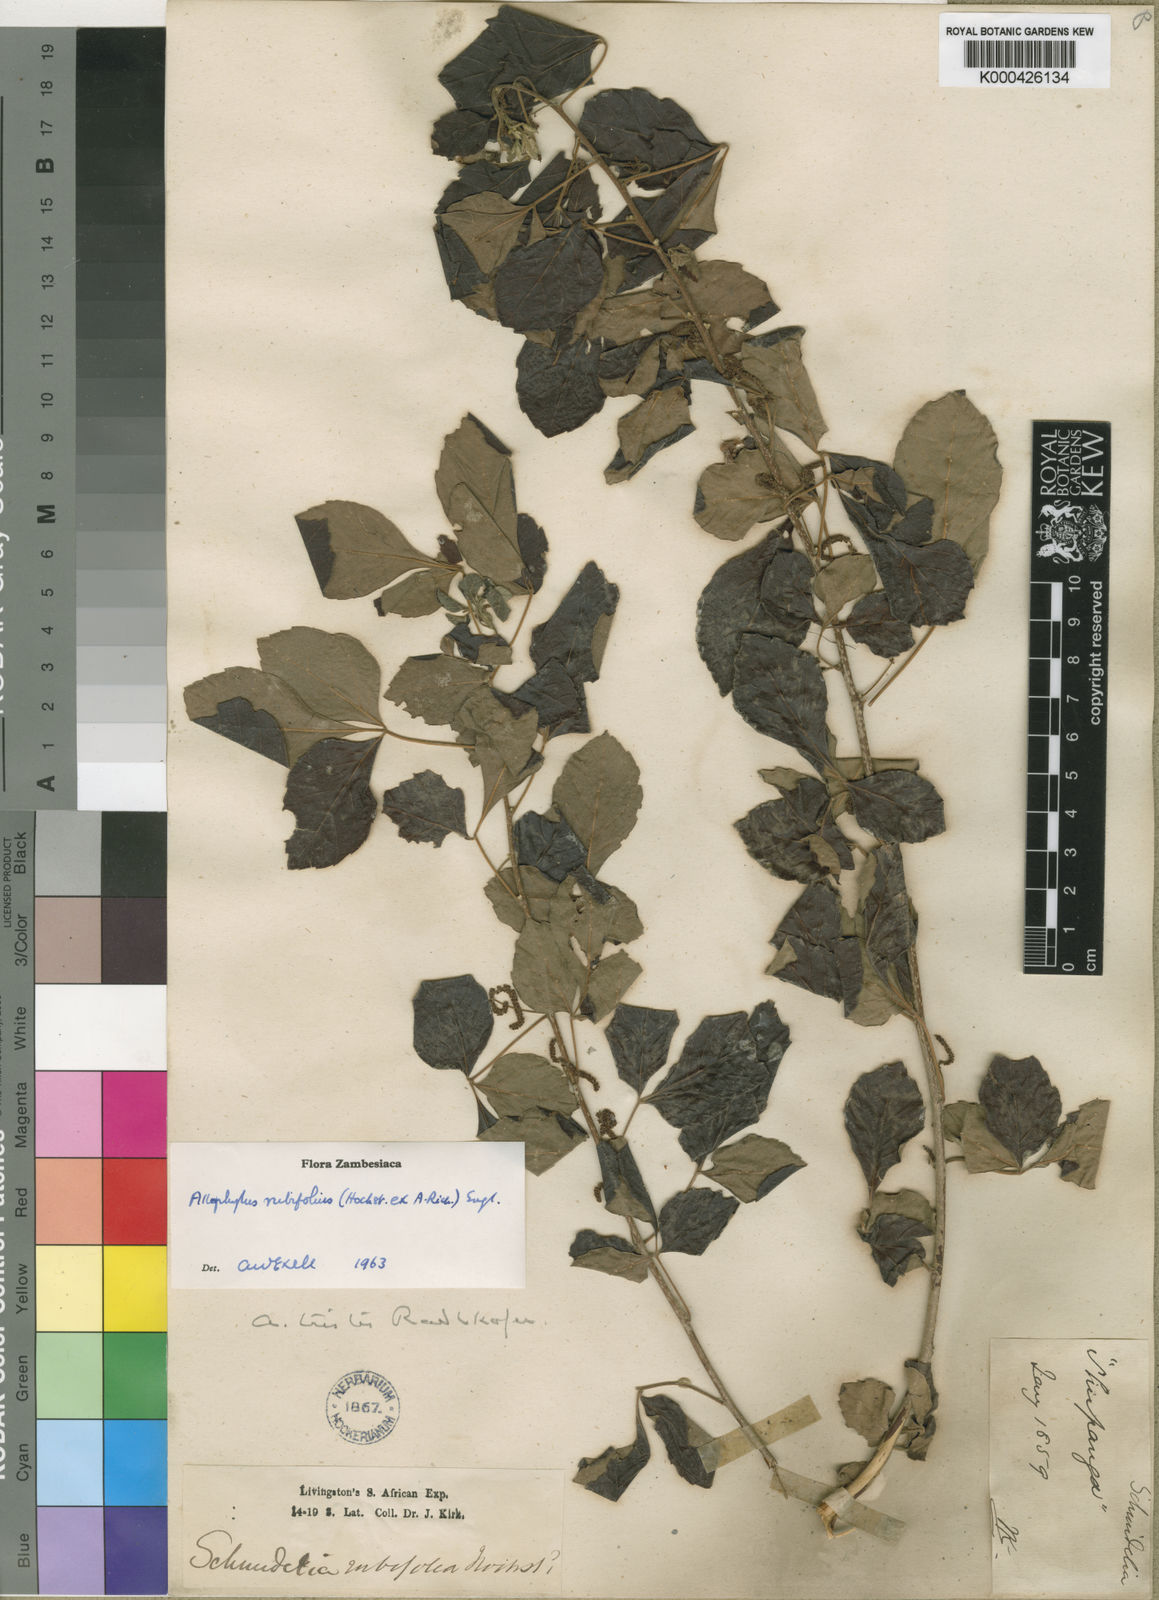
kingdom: Plantae
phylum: Tracheophyta
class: Magnoliopsida
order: Sapindales
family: Sapindaceae
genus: Allophylus
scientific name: Allophylus rubifolius
